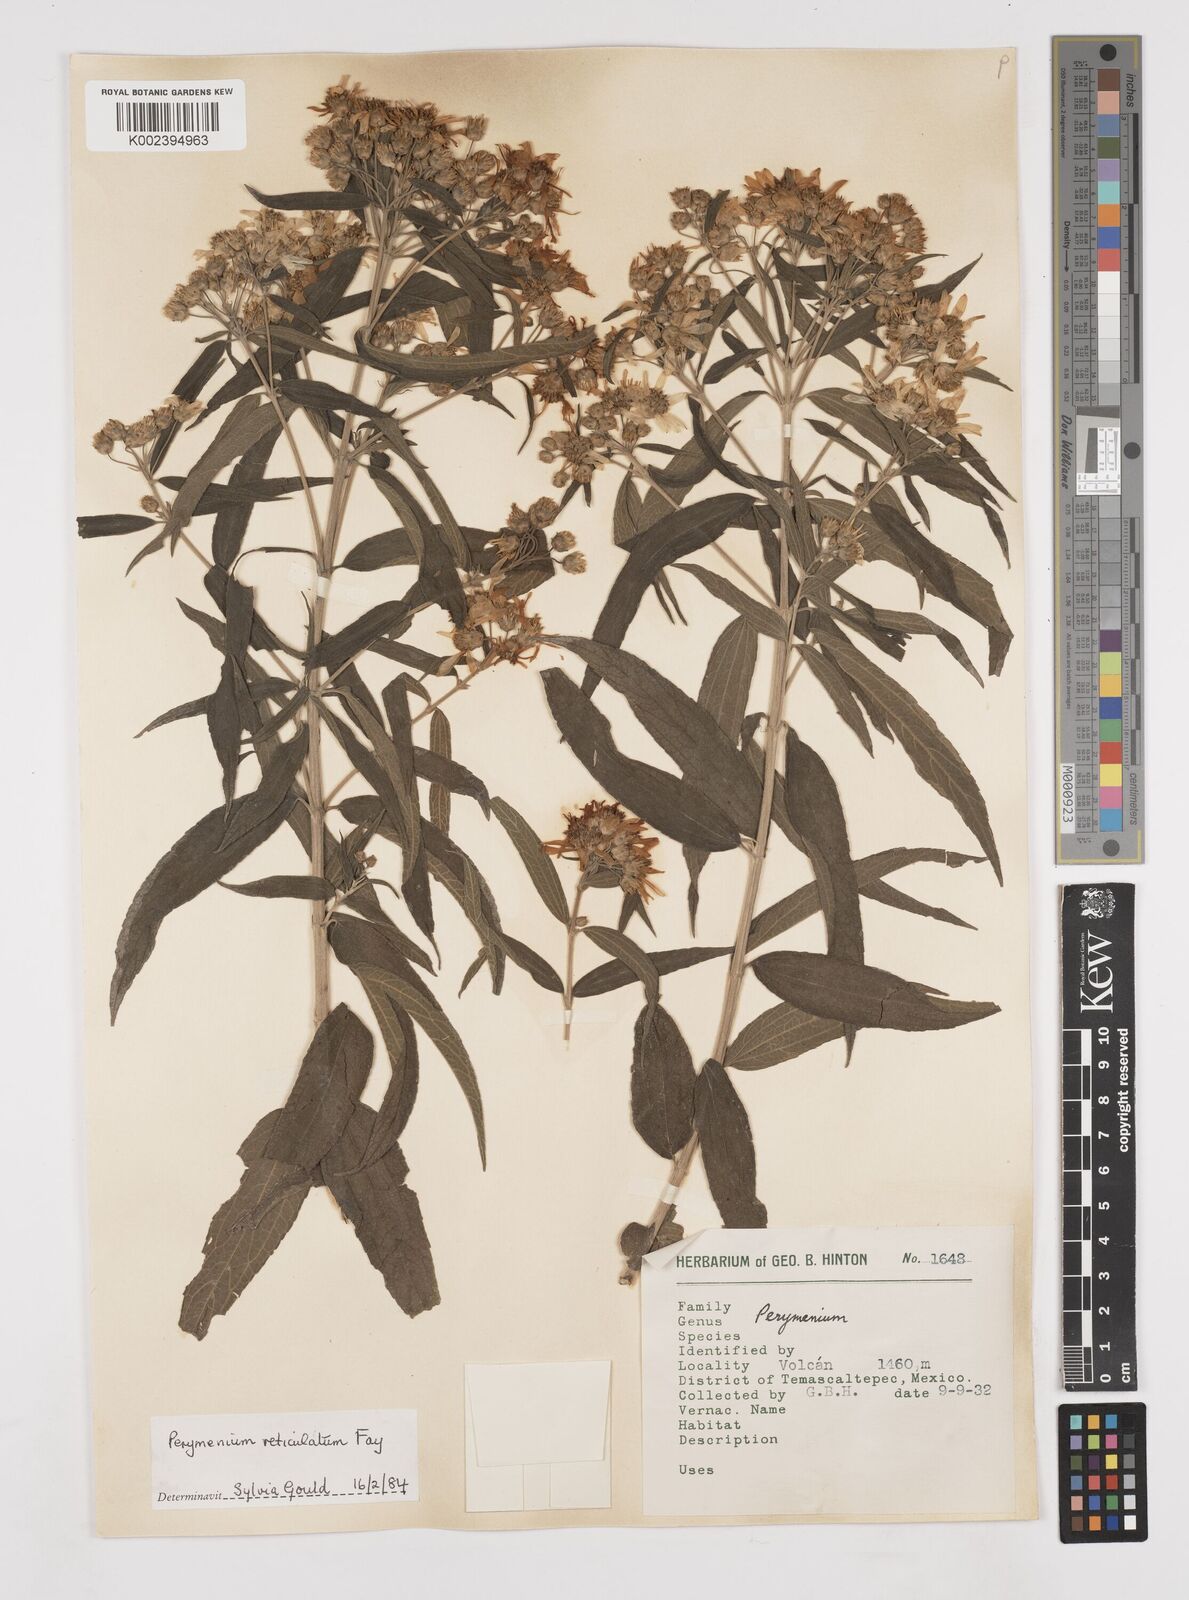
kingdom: Plantae
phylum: Tracheophyta
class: Magnoliopsida
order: Asterales
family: Asteraceae
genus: Perymenium
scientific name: Perymenium reticulatum
